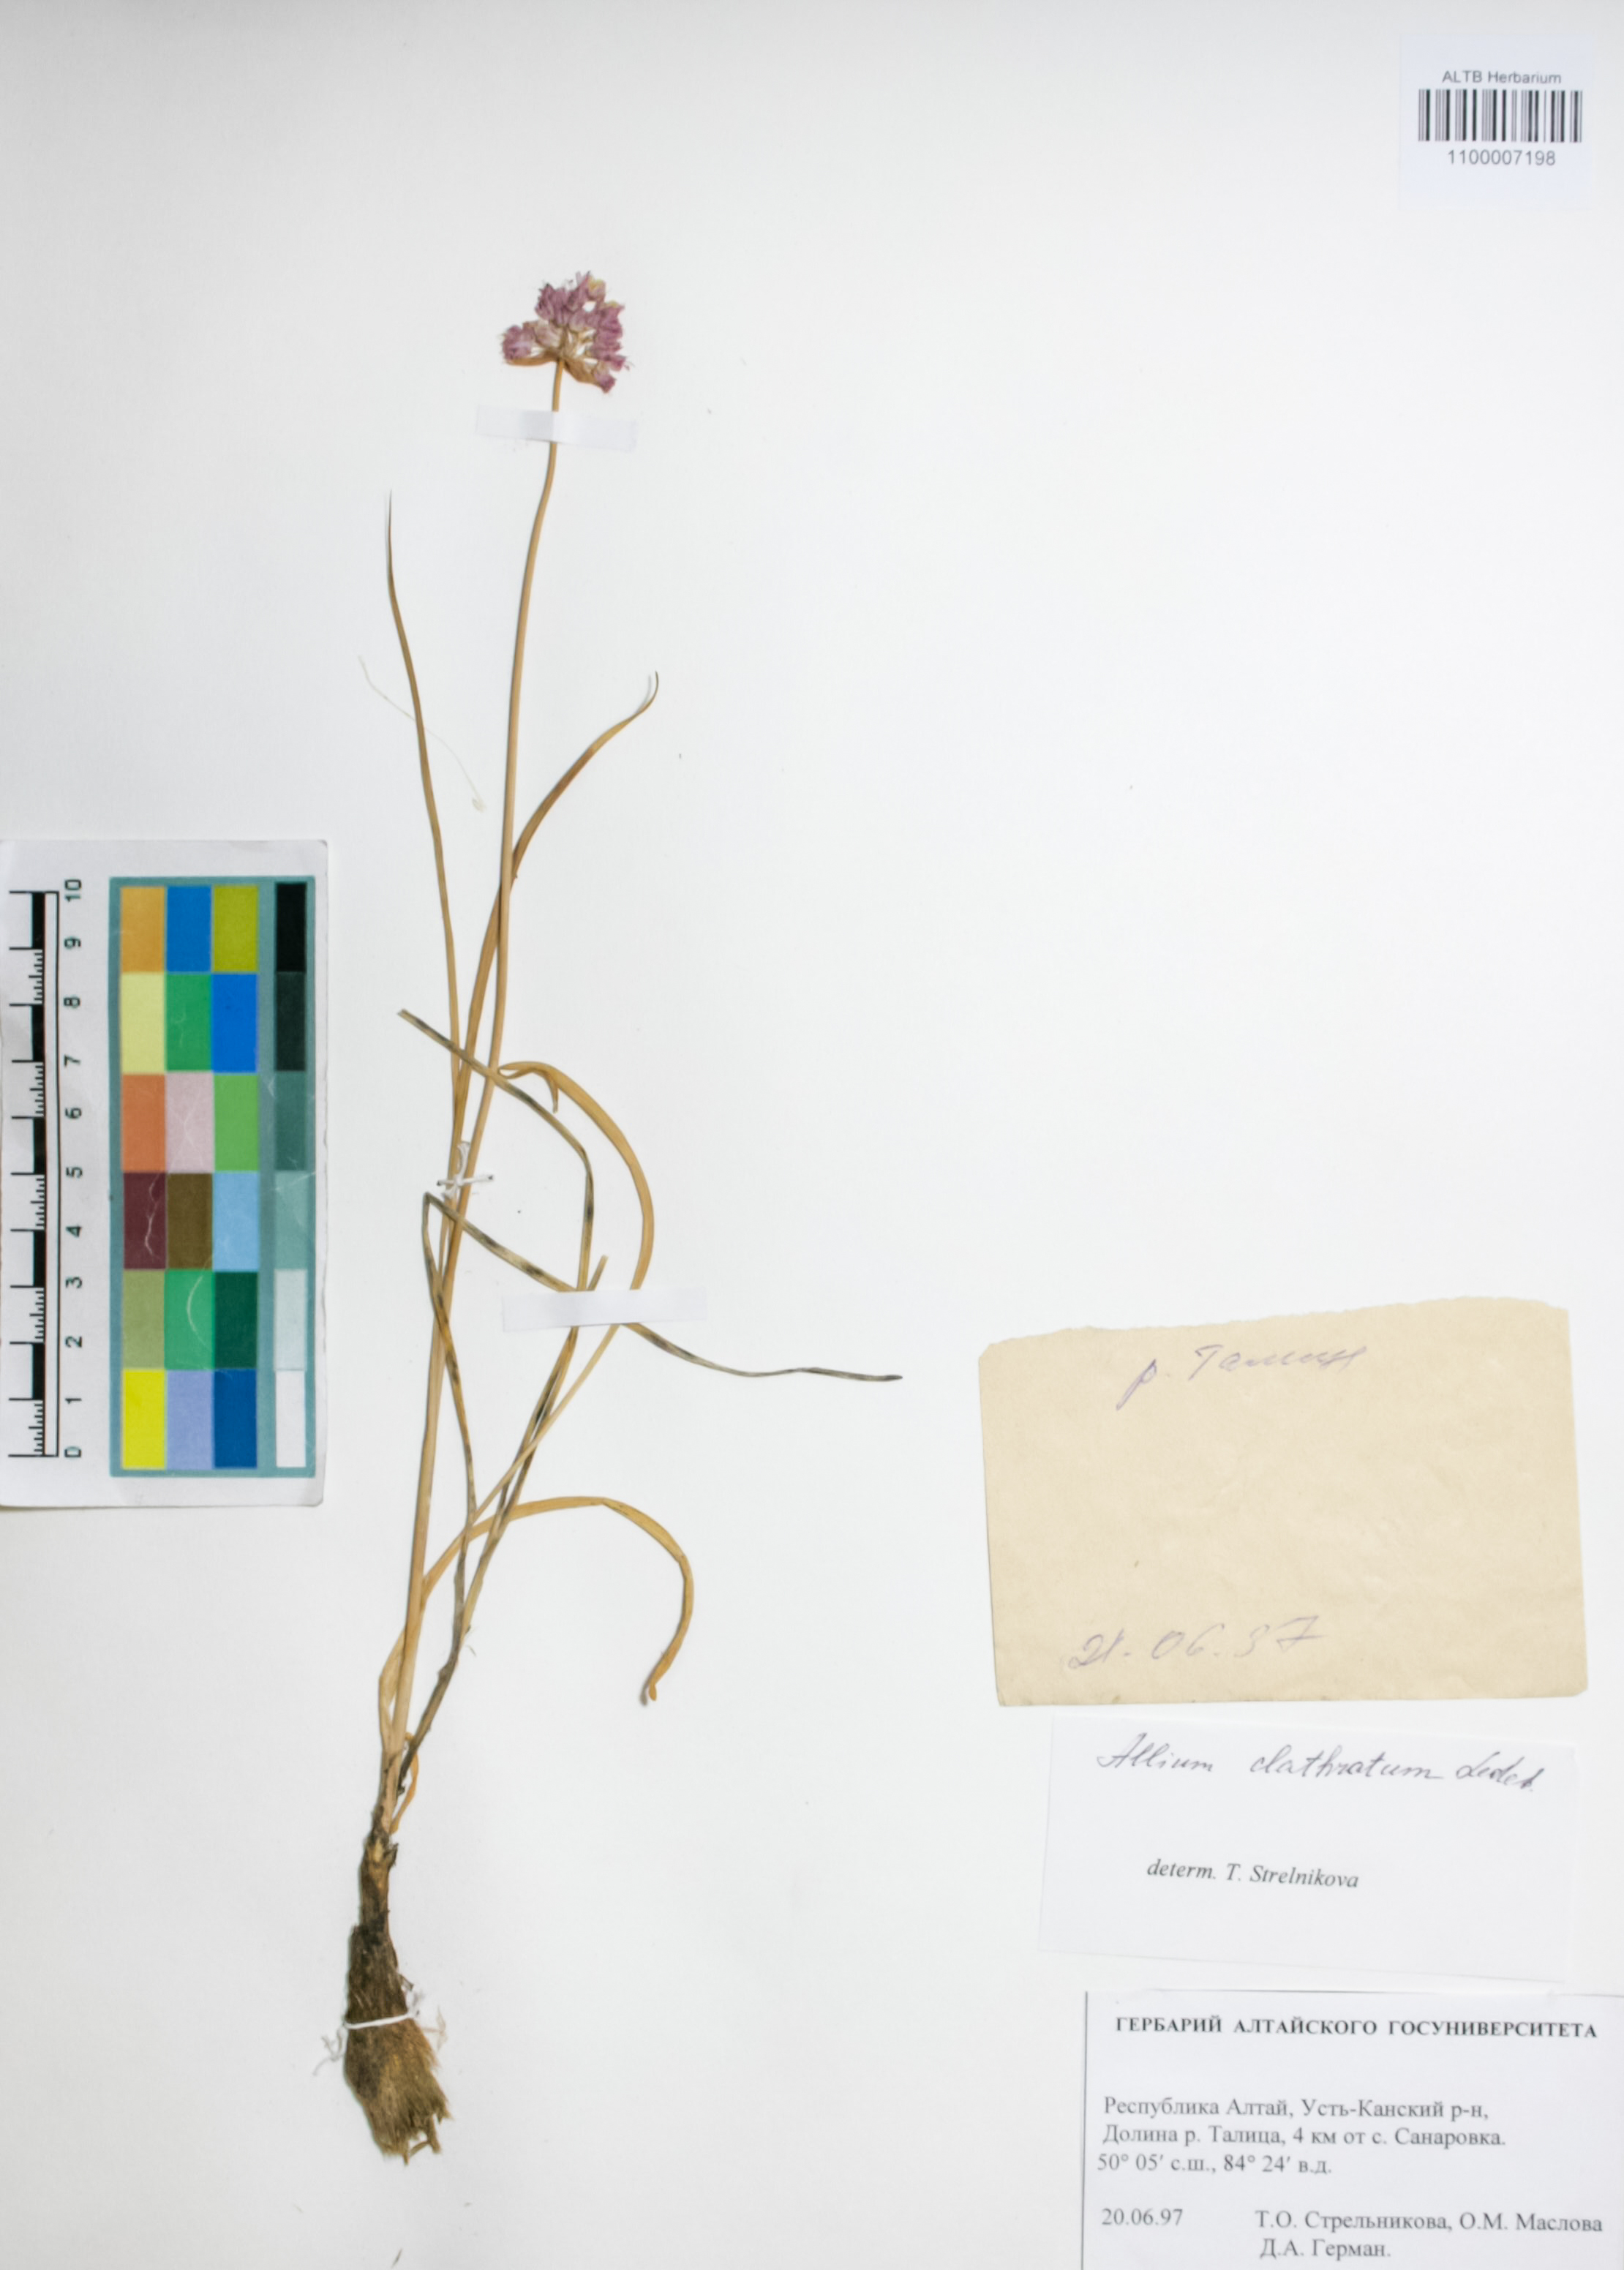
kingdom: Plantae
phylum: Tracheophyta
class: Liliopsida
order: Asparagales
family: Amaryllidaceae
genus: Allium
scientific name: Allium clathratum
